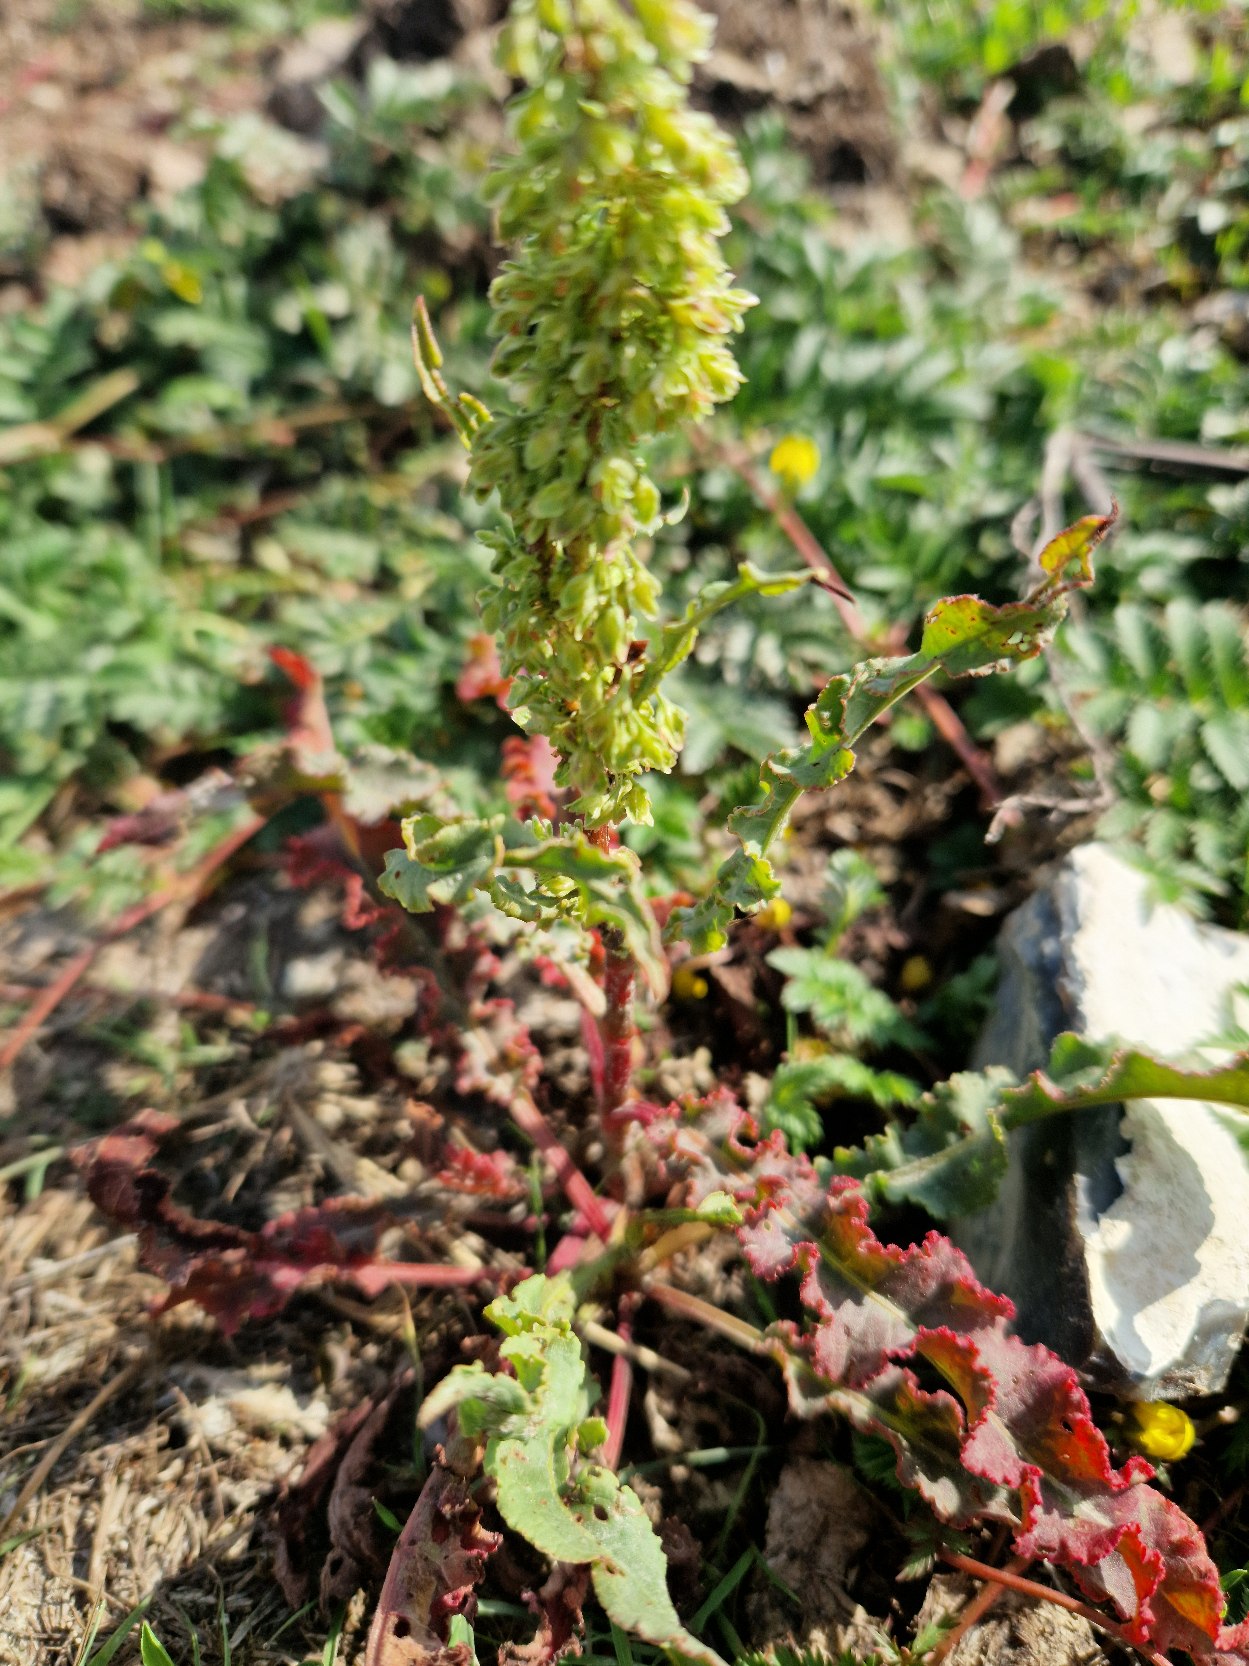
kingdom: Plantae
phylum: Tracheophyta
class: Magnoliopsida
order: Caryophyllales
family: Polygonaceae
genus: Rumex
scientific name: Rumex crispus
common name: Kruset skræppe
